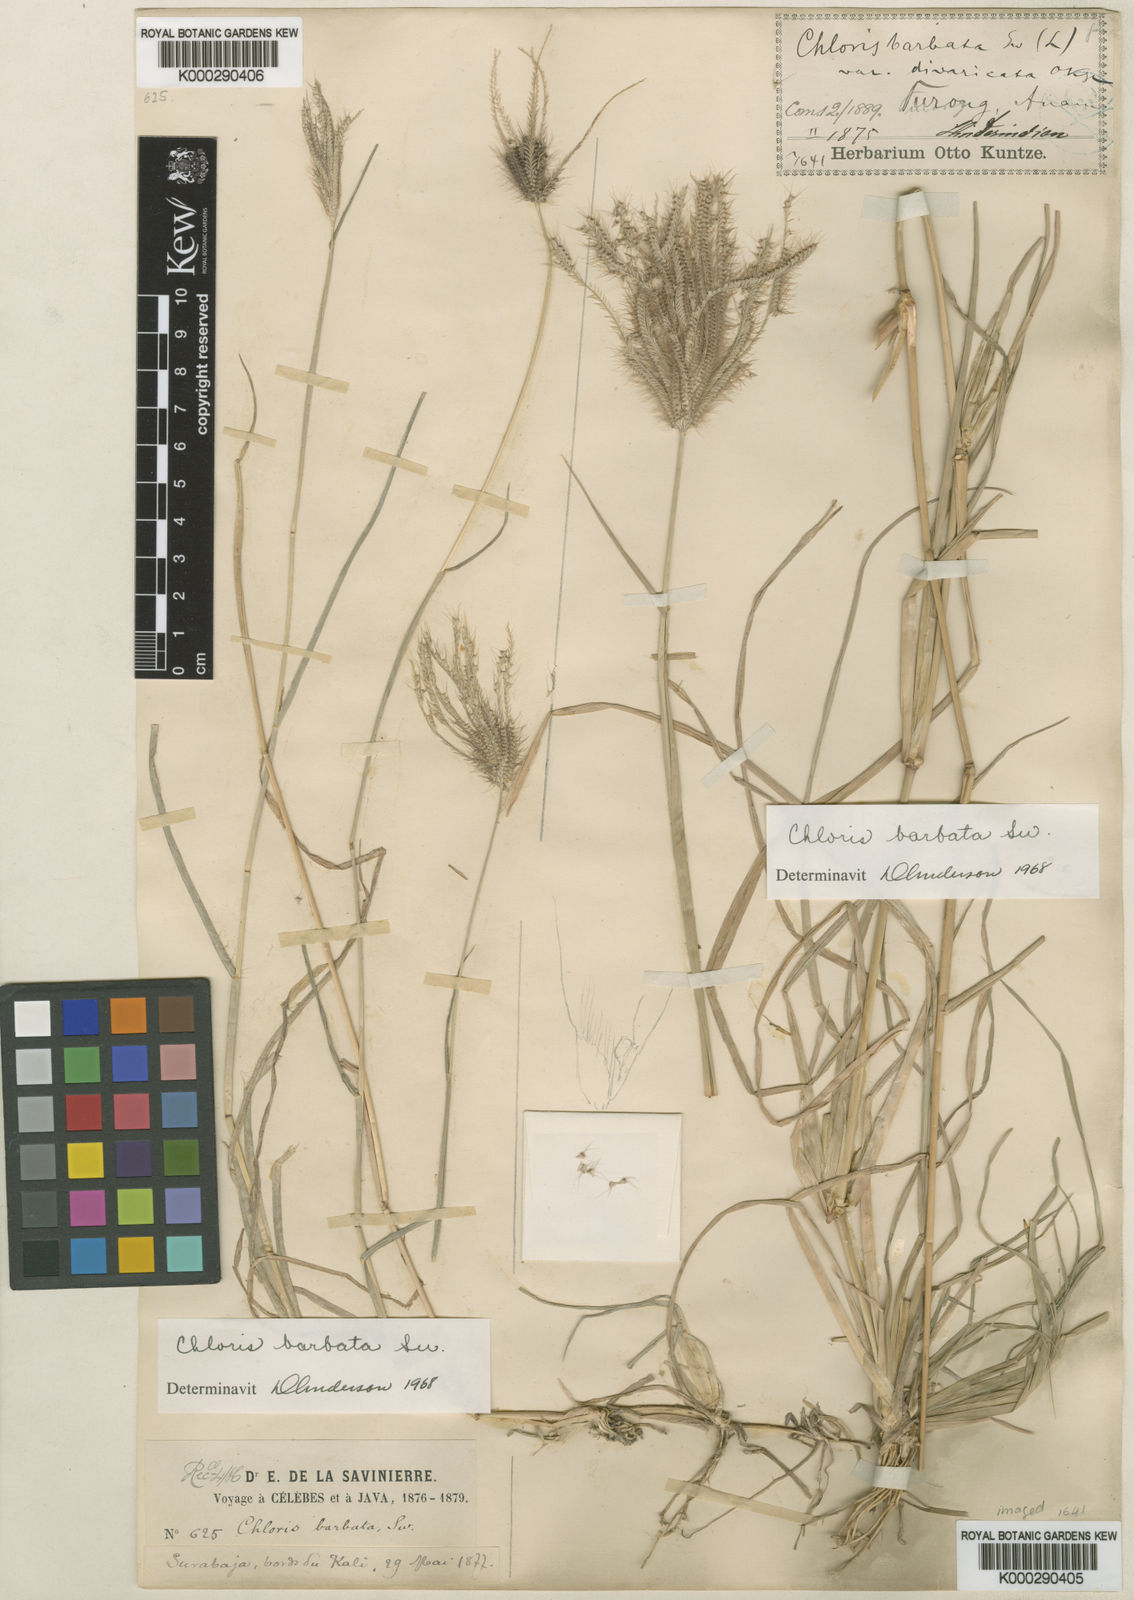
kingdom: Plantae
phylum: Tracheophyta
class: Liliopsida
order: Poales
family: Poaceae
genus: Chloris
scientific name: Chloris barbata
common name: Swollen fingergrass
